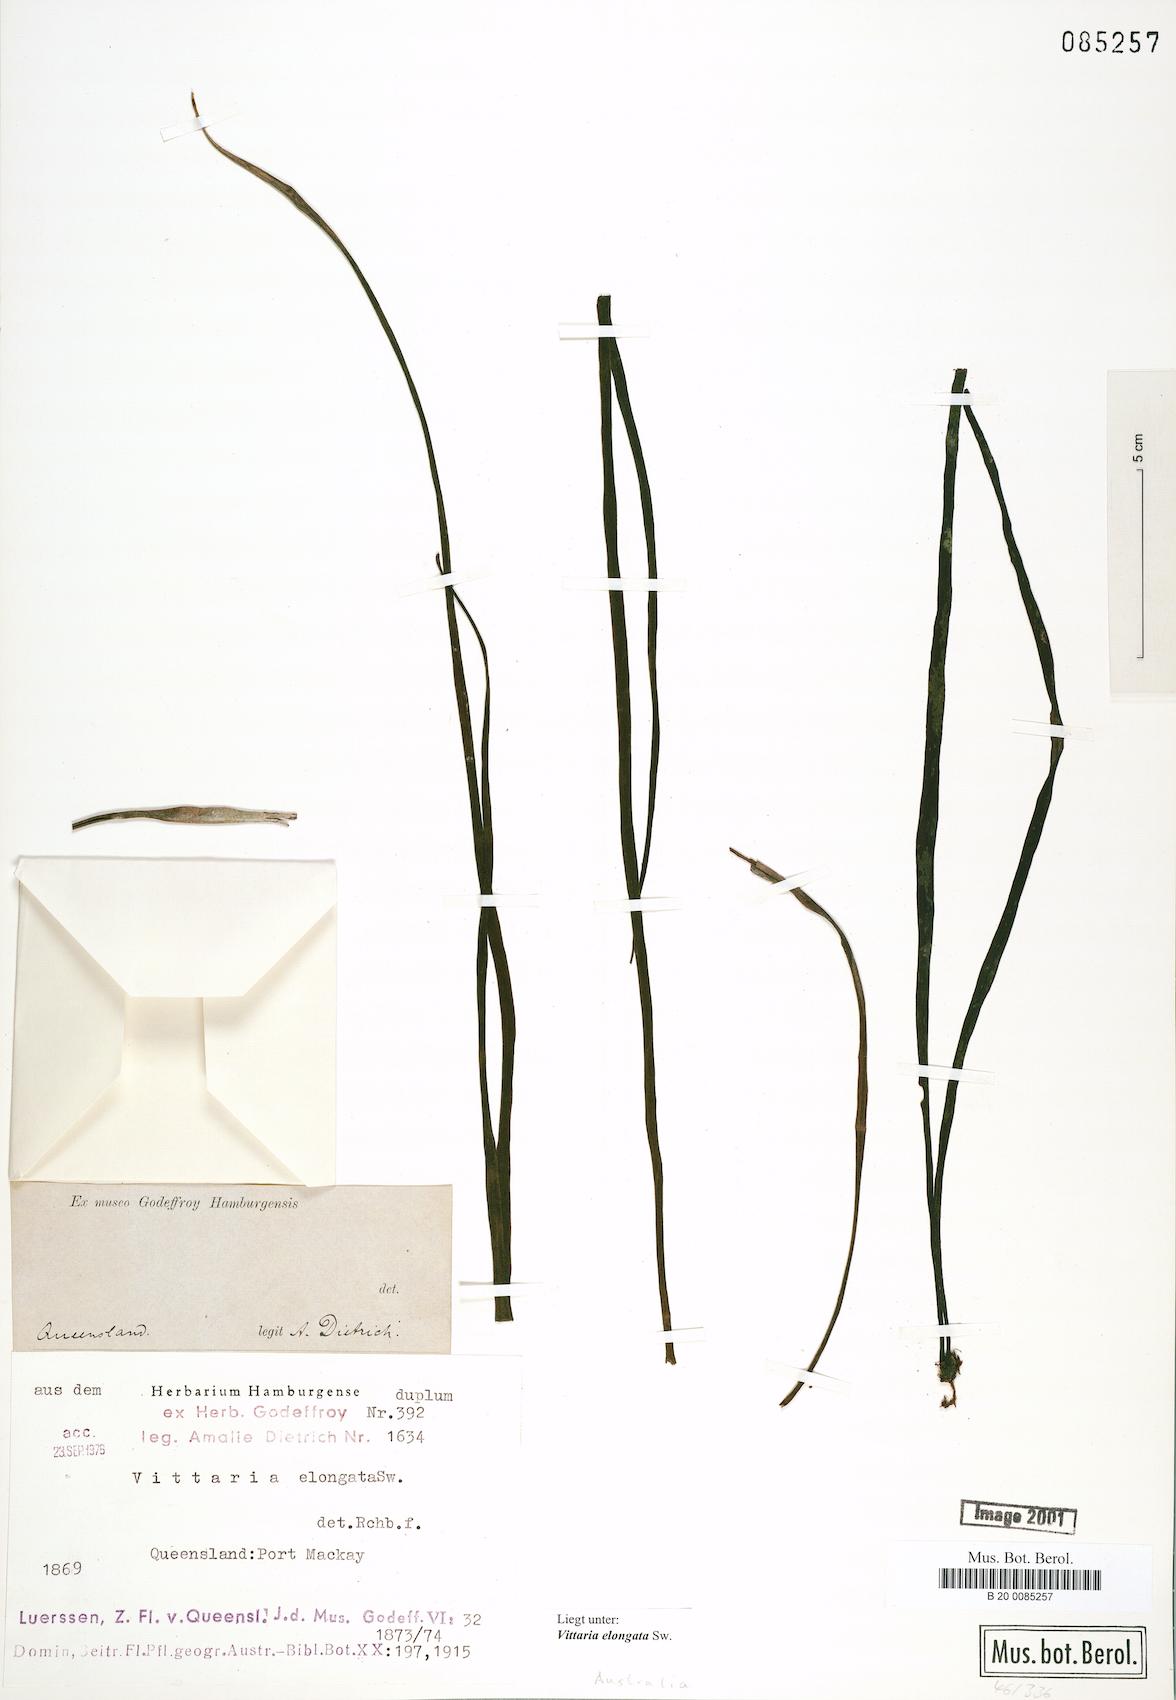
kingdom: Plantae
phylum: Tracheophyta
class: Polypodiopsida
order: Polypodiales
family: Pteridaceae
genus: Haplopteris
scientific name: Haplopteris elongata
